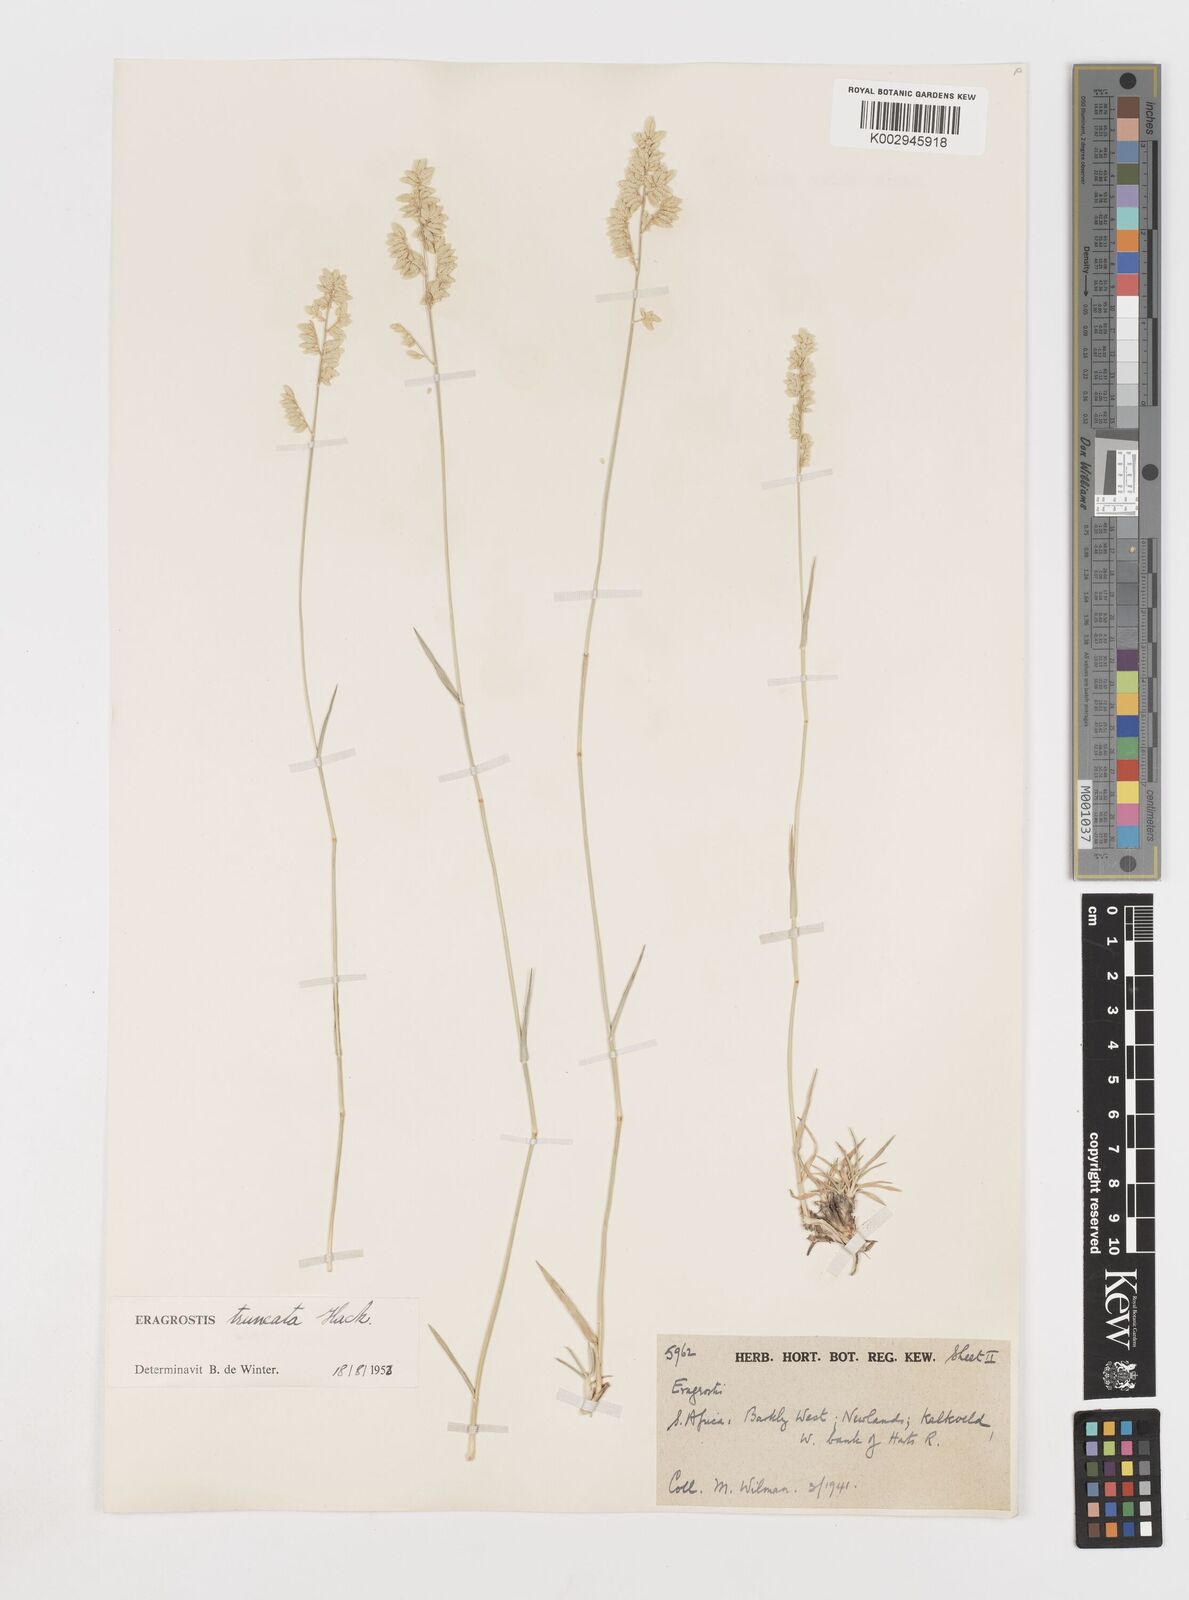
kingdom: Plantae
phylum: Tracheophyta
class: Liliopsida
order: Poales
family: Poaceae
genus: Eragrostis
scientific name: Eragrostis truncata
